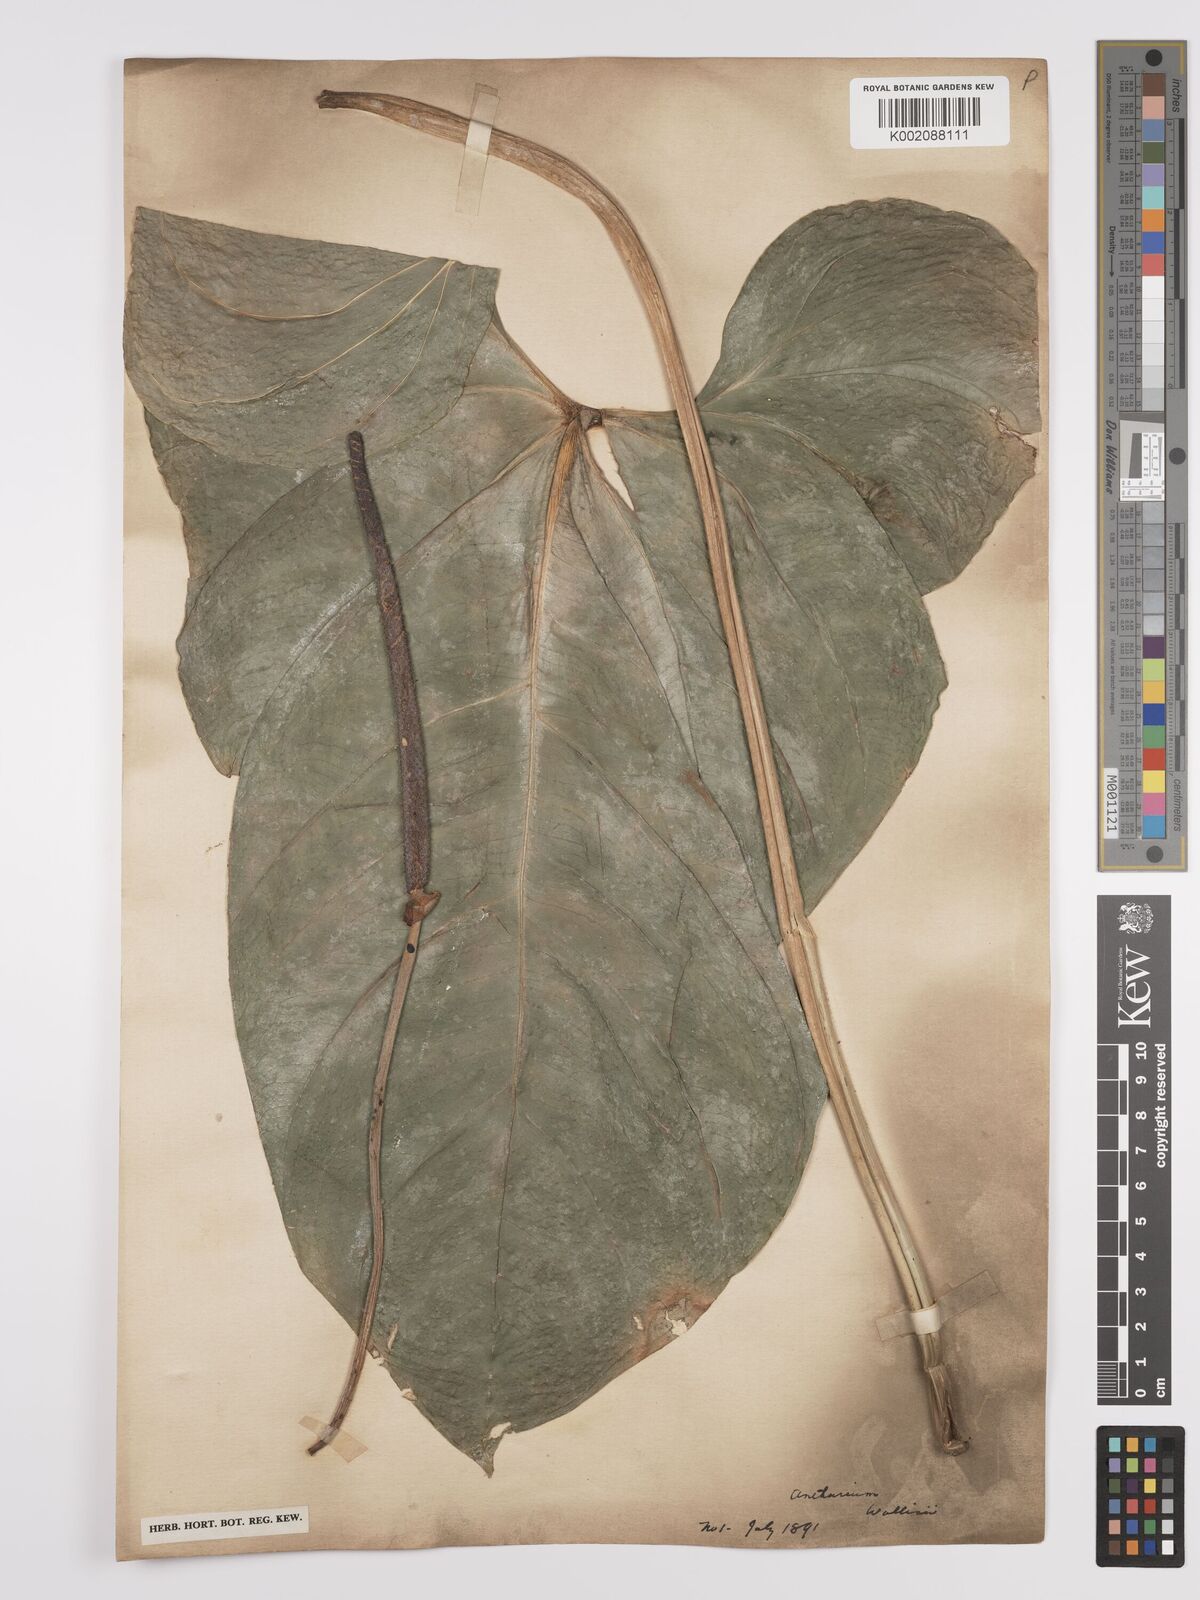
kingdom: Plantae
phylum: Tracheophyta
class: Liliopsida
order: Alismatales
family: Araceae
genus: Anthurium
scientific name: Anthurium wallisii
